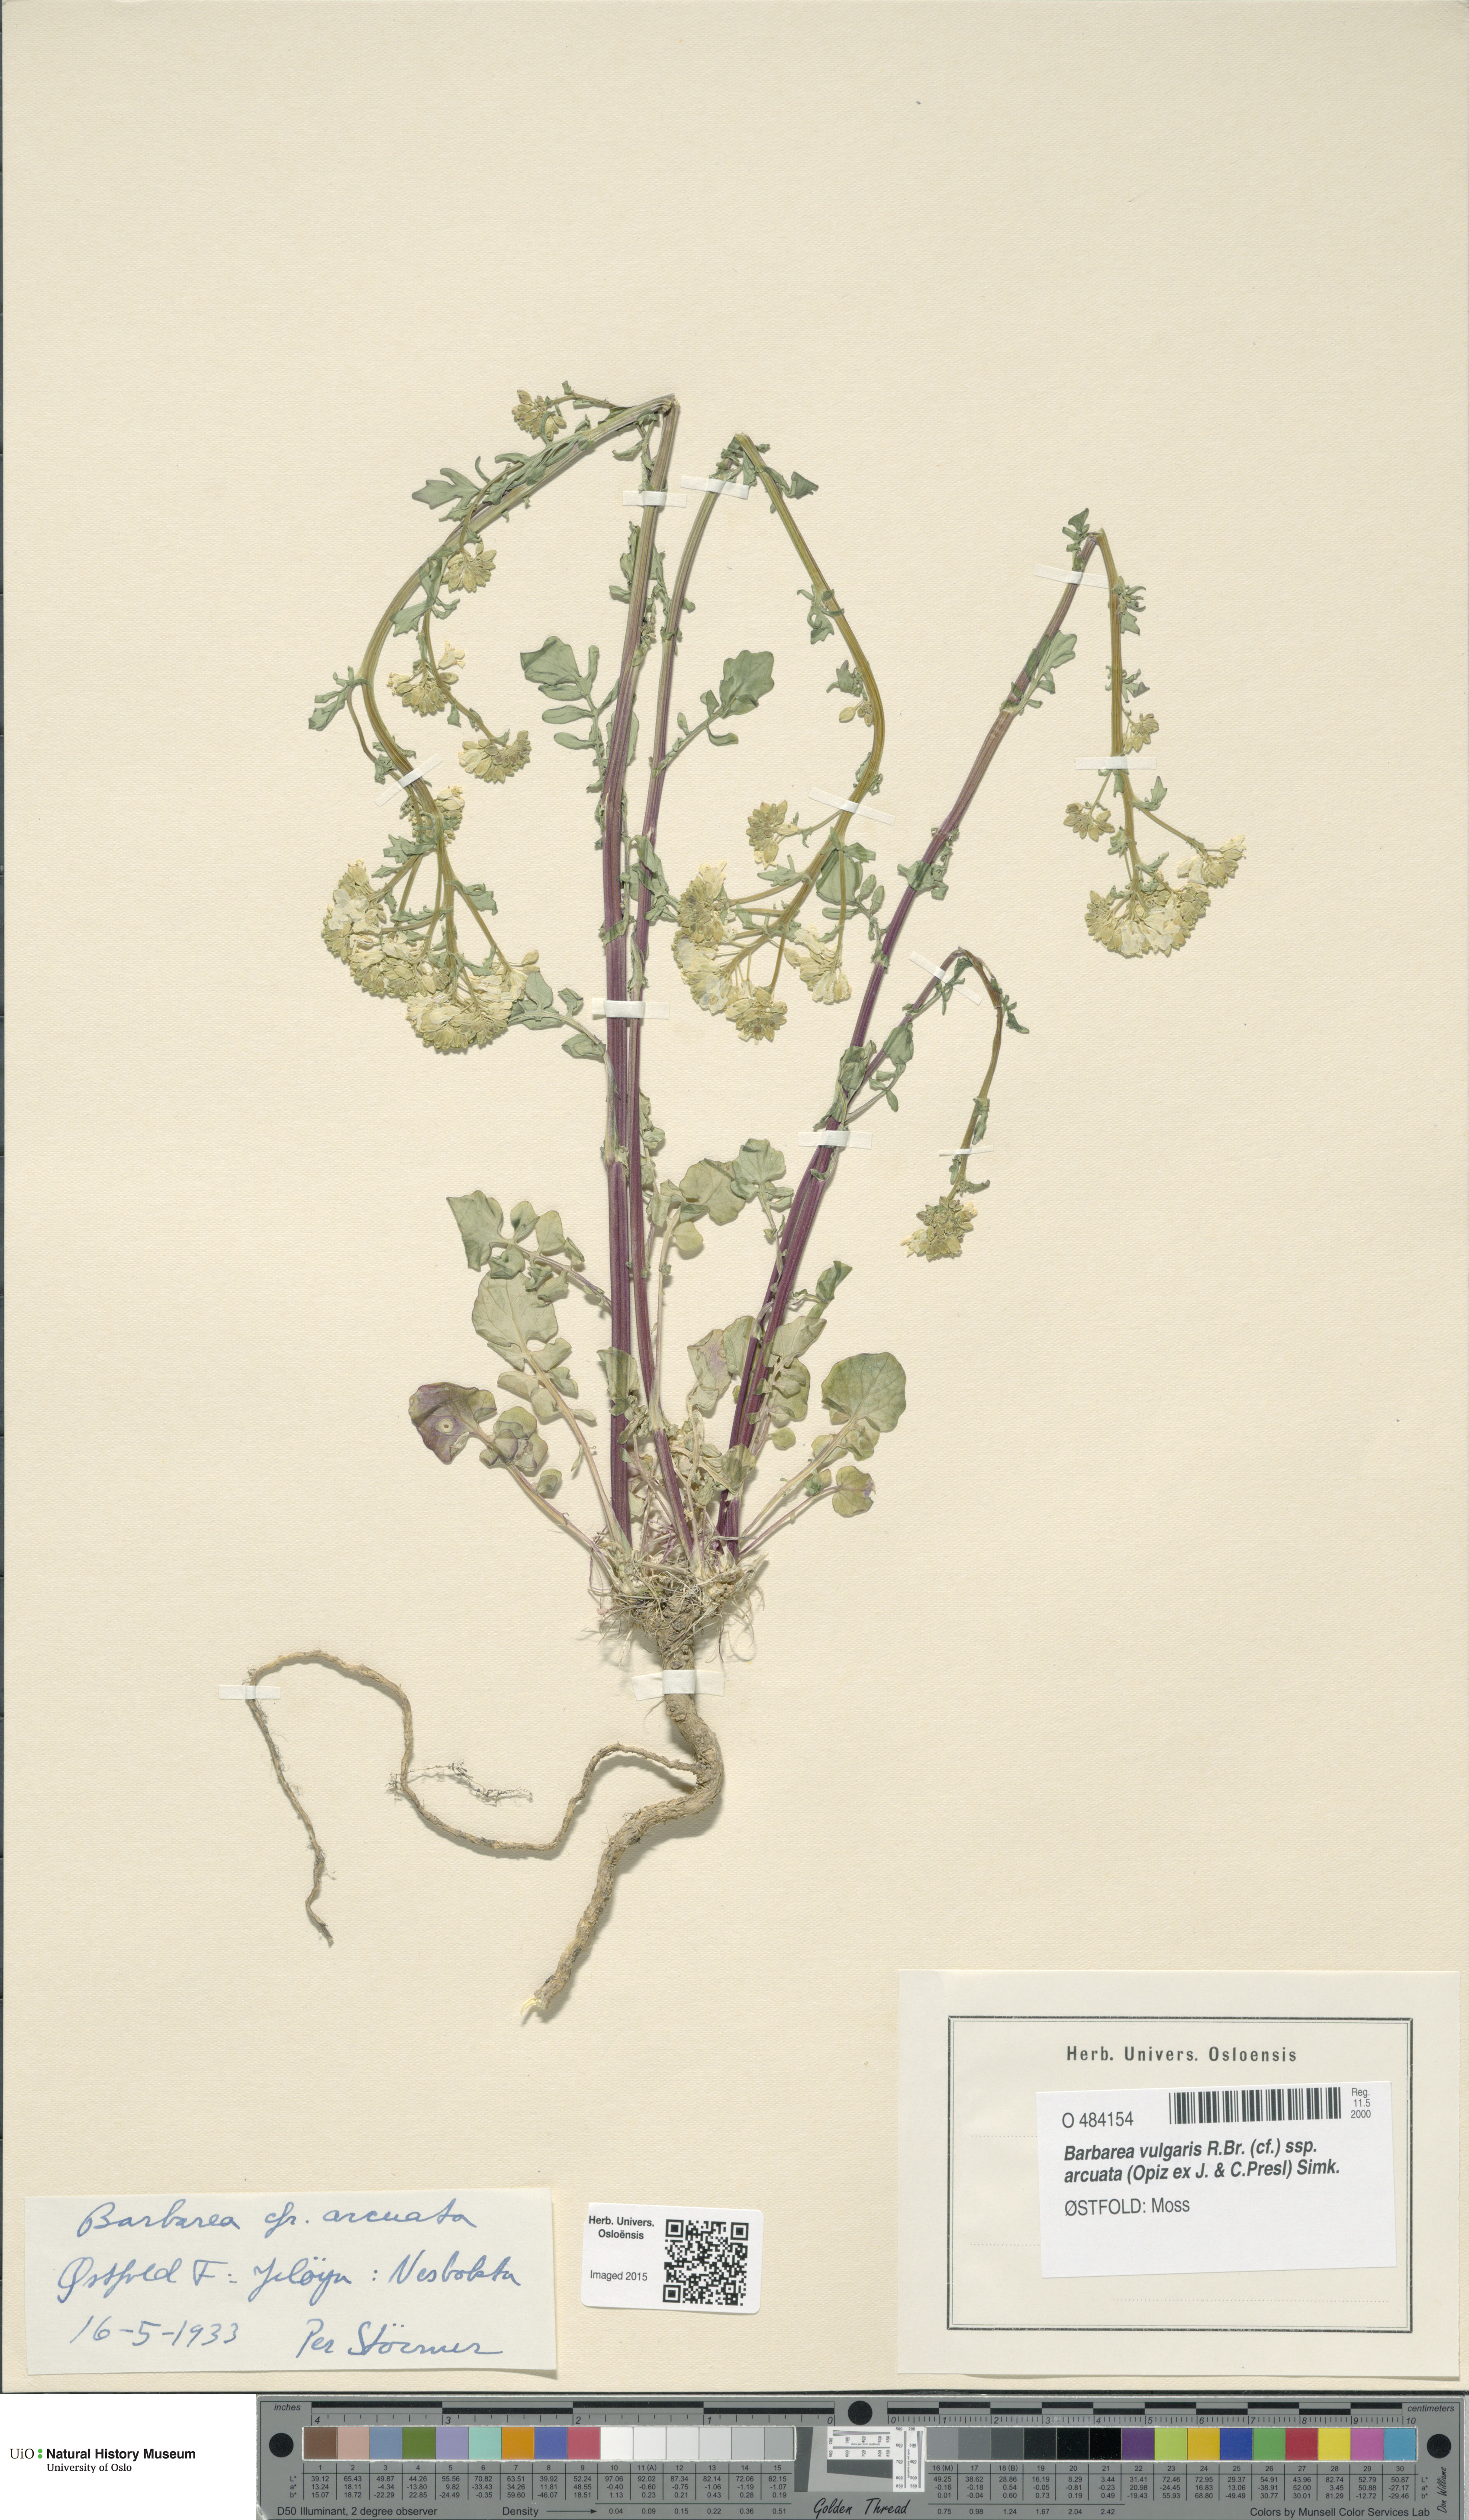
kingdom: Plantae
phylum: Tracheophyta
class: Magnoliopsida
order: Brassicales
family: Brassicaceae
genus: Barbarea
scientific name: Barbarea vulgaris
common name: Cressy-greens
